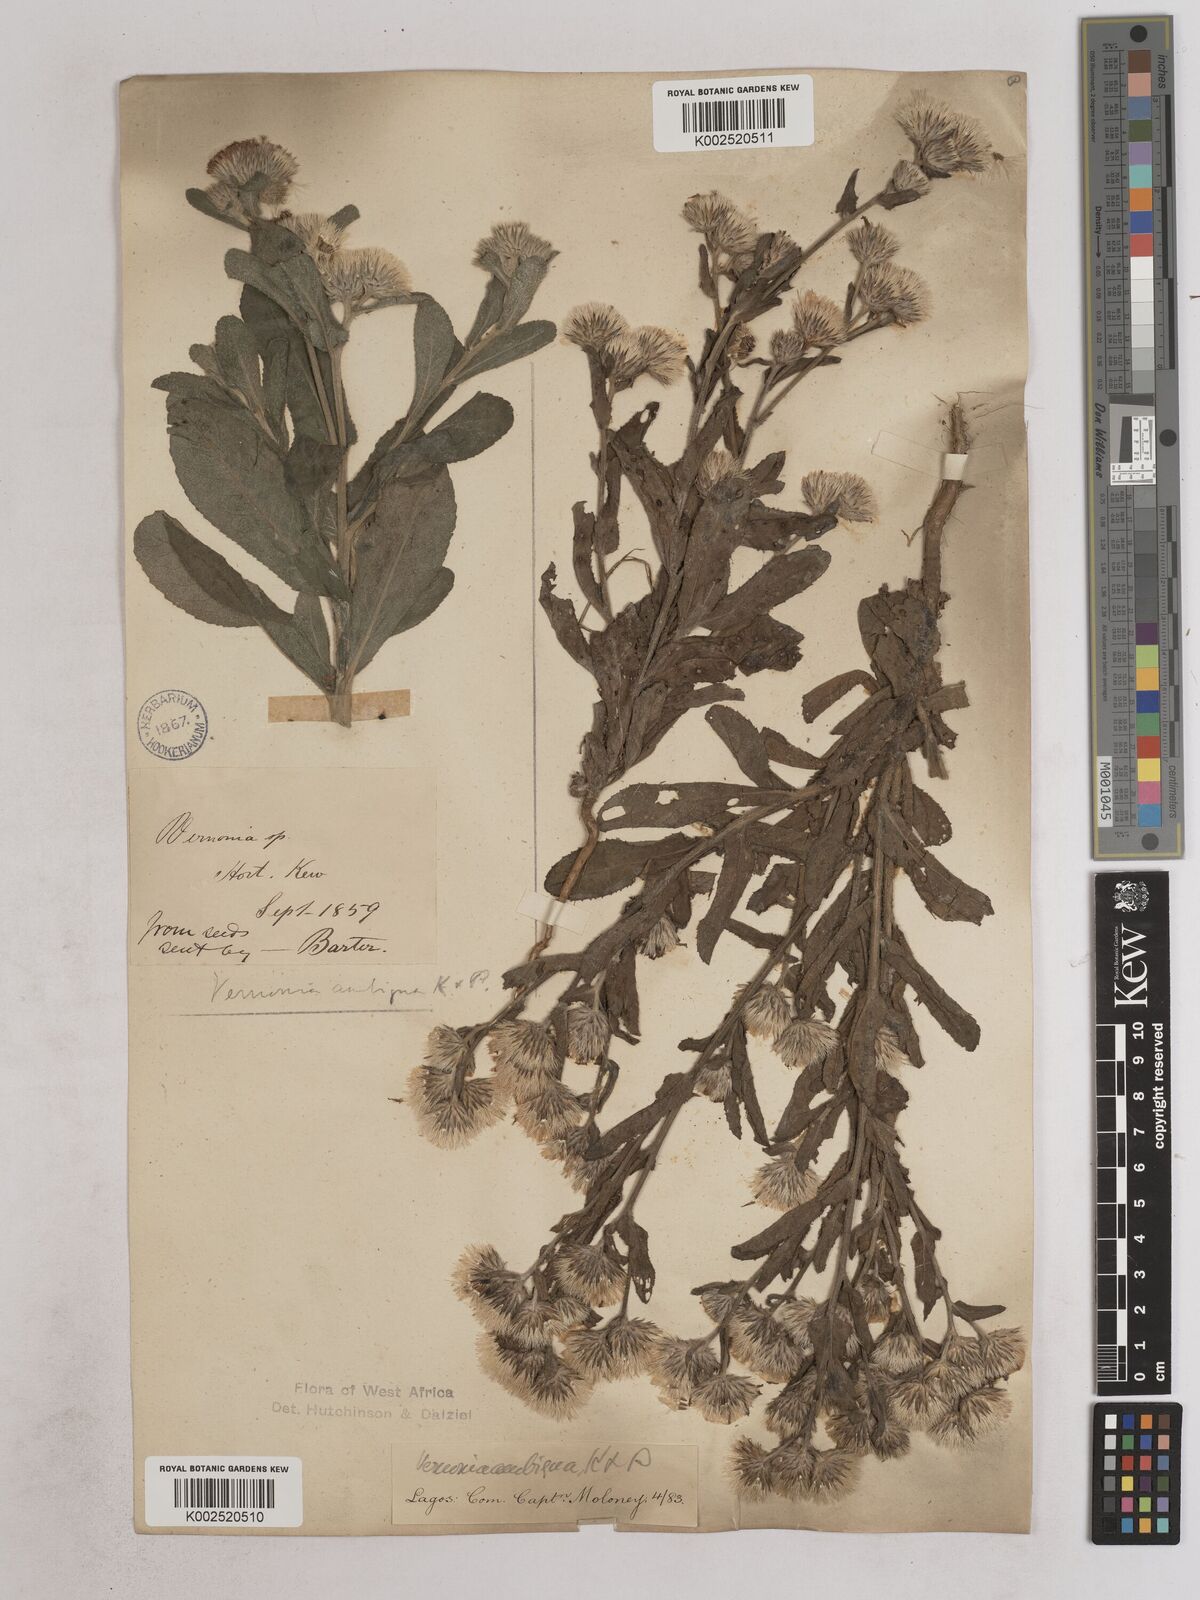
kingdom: Plantae
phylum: Tracheophyta
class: Magnoliopsida
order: Asterales
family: Asteraceae
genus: Vernoniastrum
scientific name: Vernoniastrum ambiguum
